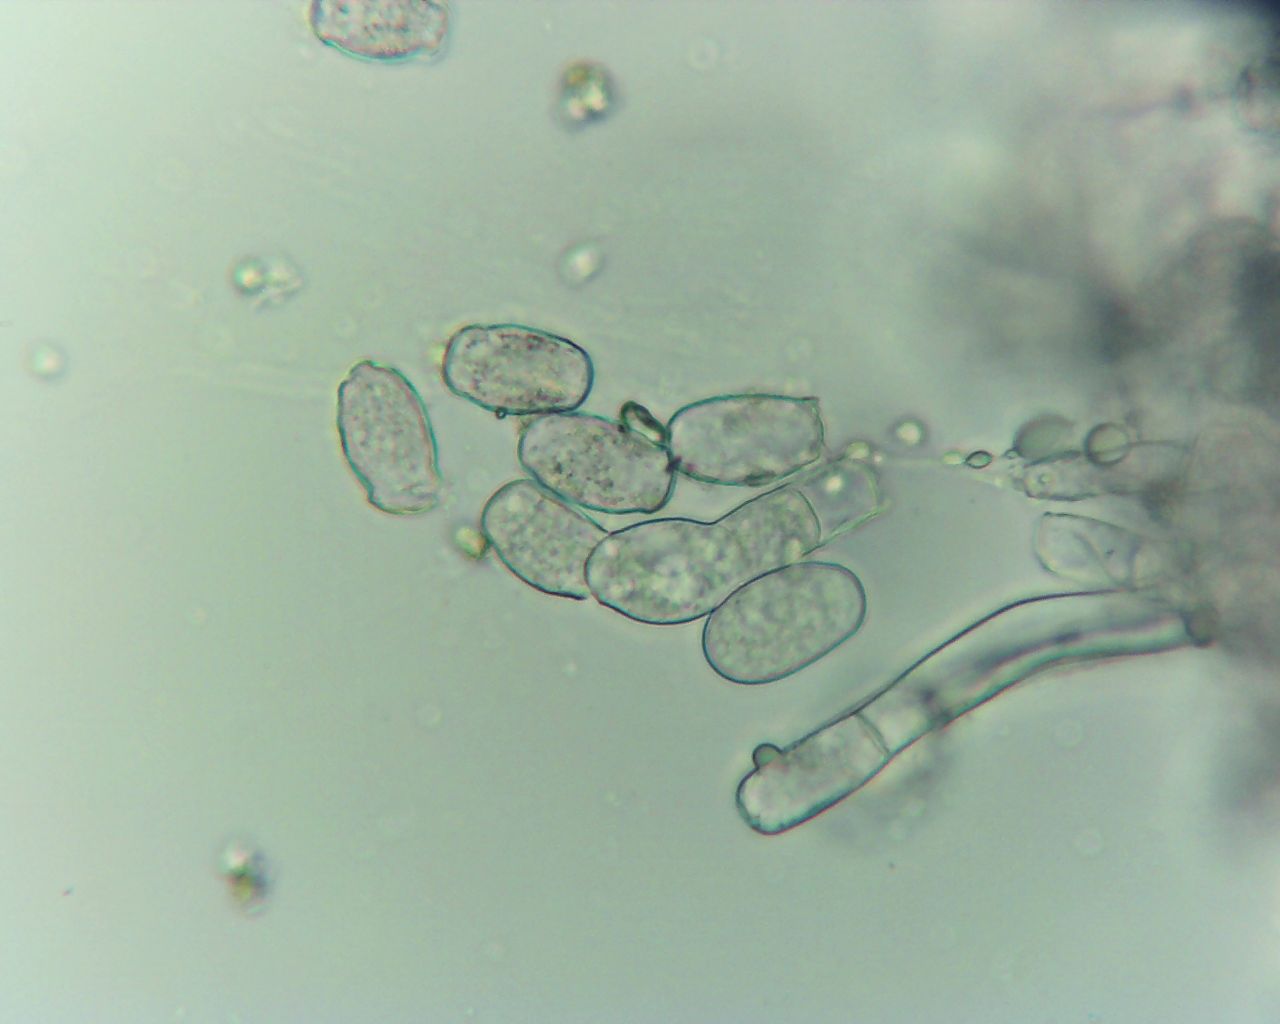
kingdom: Fungi
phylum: Ascomycota
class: Leotiomycetes
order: Helotiales
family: Erysiphaceae
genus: Golovinomyces
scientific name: Golovinomyces asperifolii
